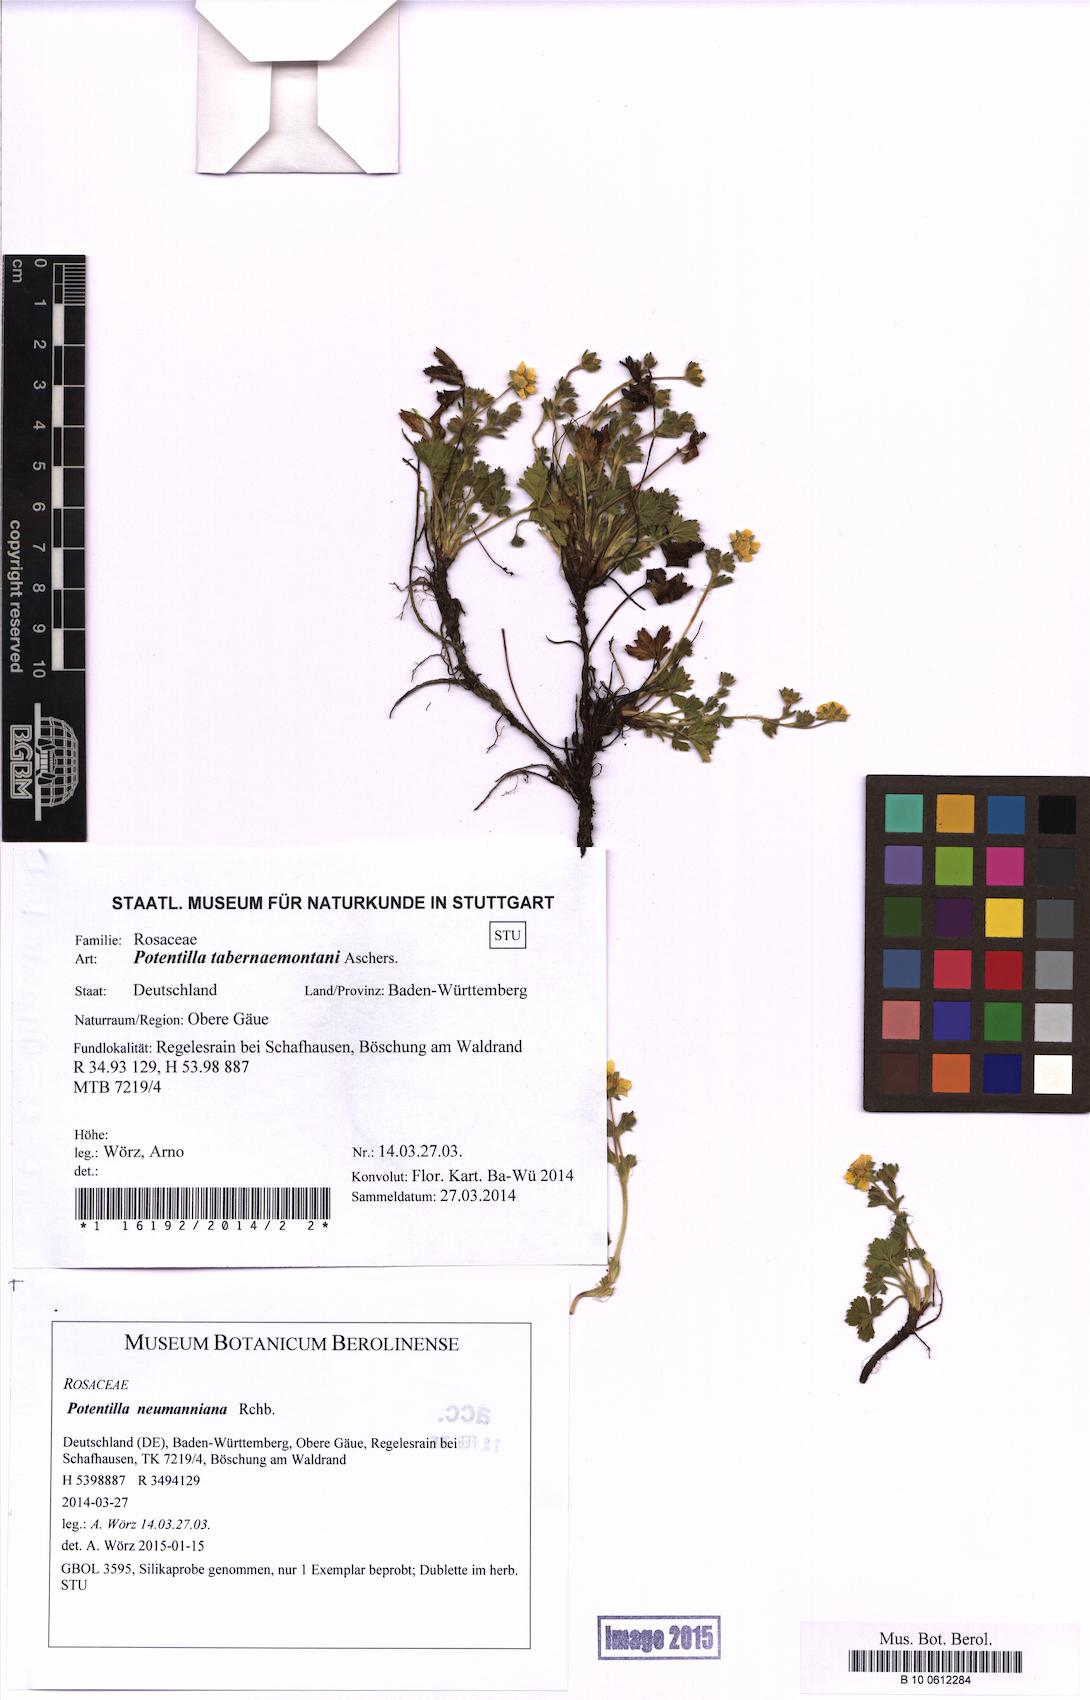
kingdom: Plantae
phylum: Tracheophyta
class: Magnoliopsida
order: Rosales
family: Rosaceae
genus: Potentilla
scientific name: Potentilla verna
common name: Spring cinquefoil
